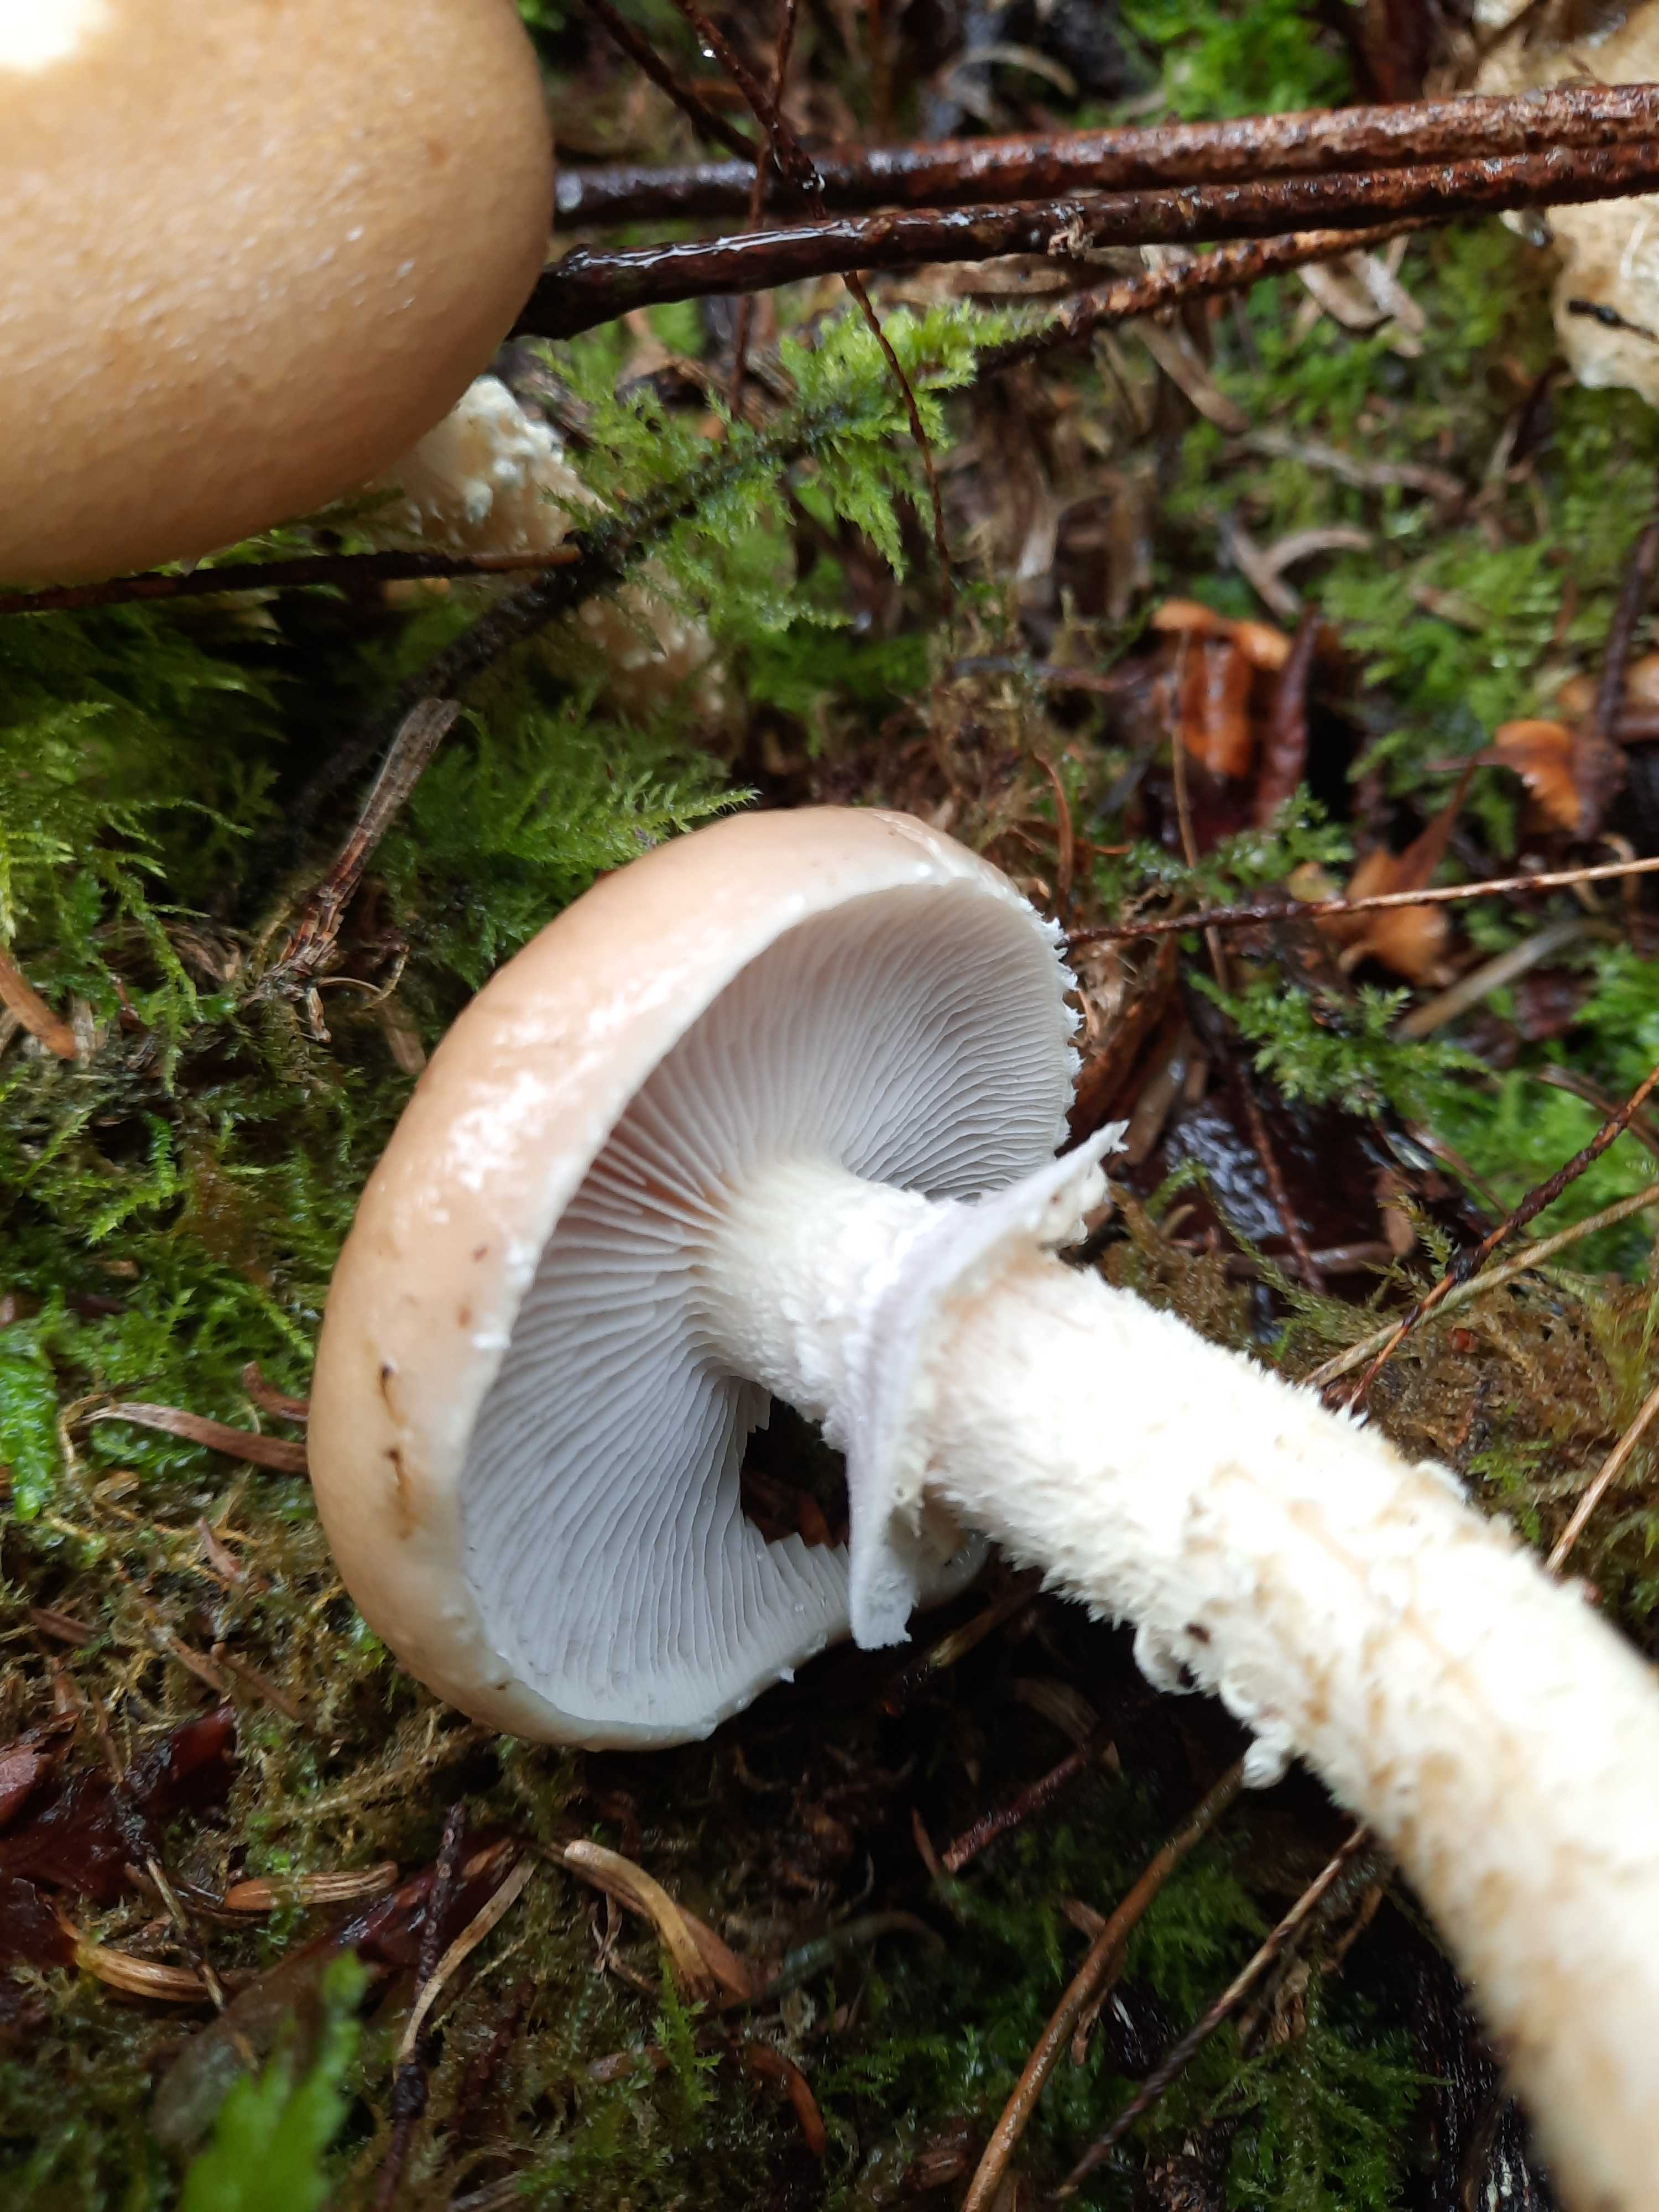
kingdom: Fungi
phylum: Basidiomycota
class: Agaricomycetes
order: Agaricales
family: Strophariaceae
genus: Stropharia
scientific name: Stropharia hornemannii
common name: nordisk bredblad
